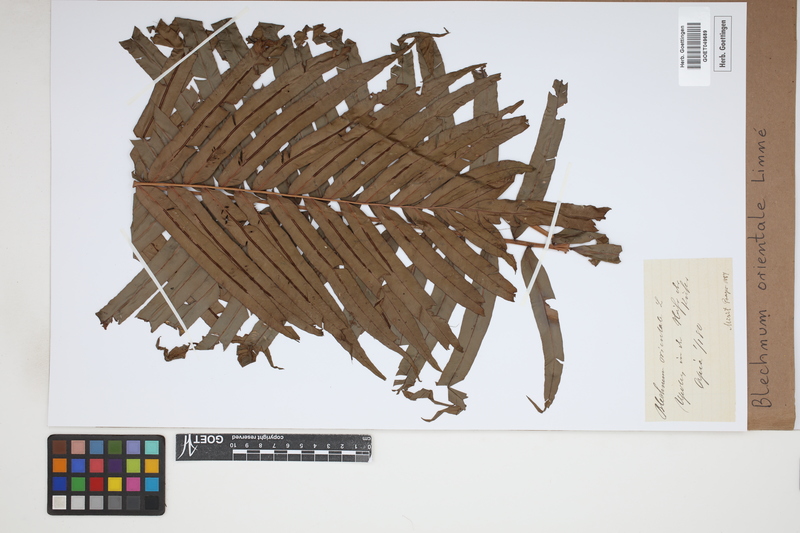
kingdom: Plantae
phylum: Tracheophyta
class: Polypodiopsida
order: Polypodiales
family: Blechnaceae
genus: Blechnopsis
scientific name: Blechnopsis orientalis
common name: Oriental blechnum
